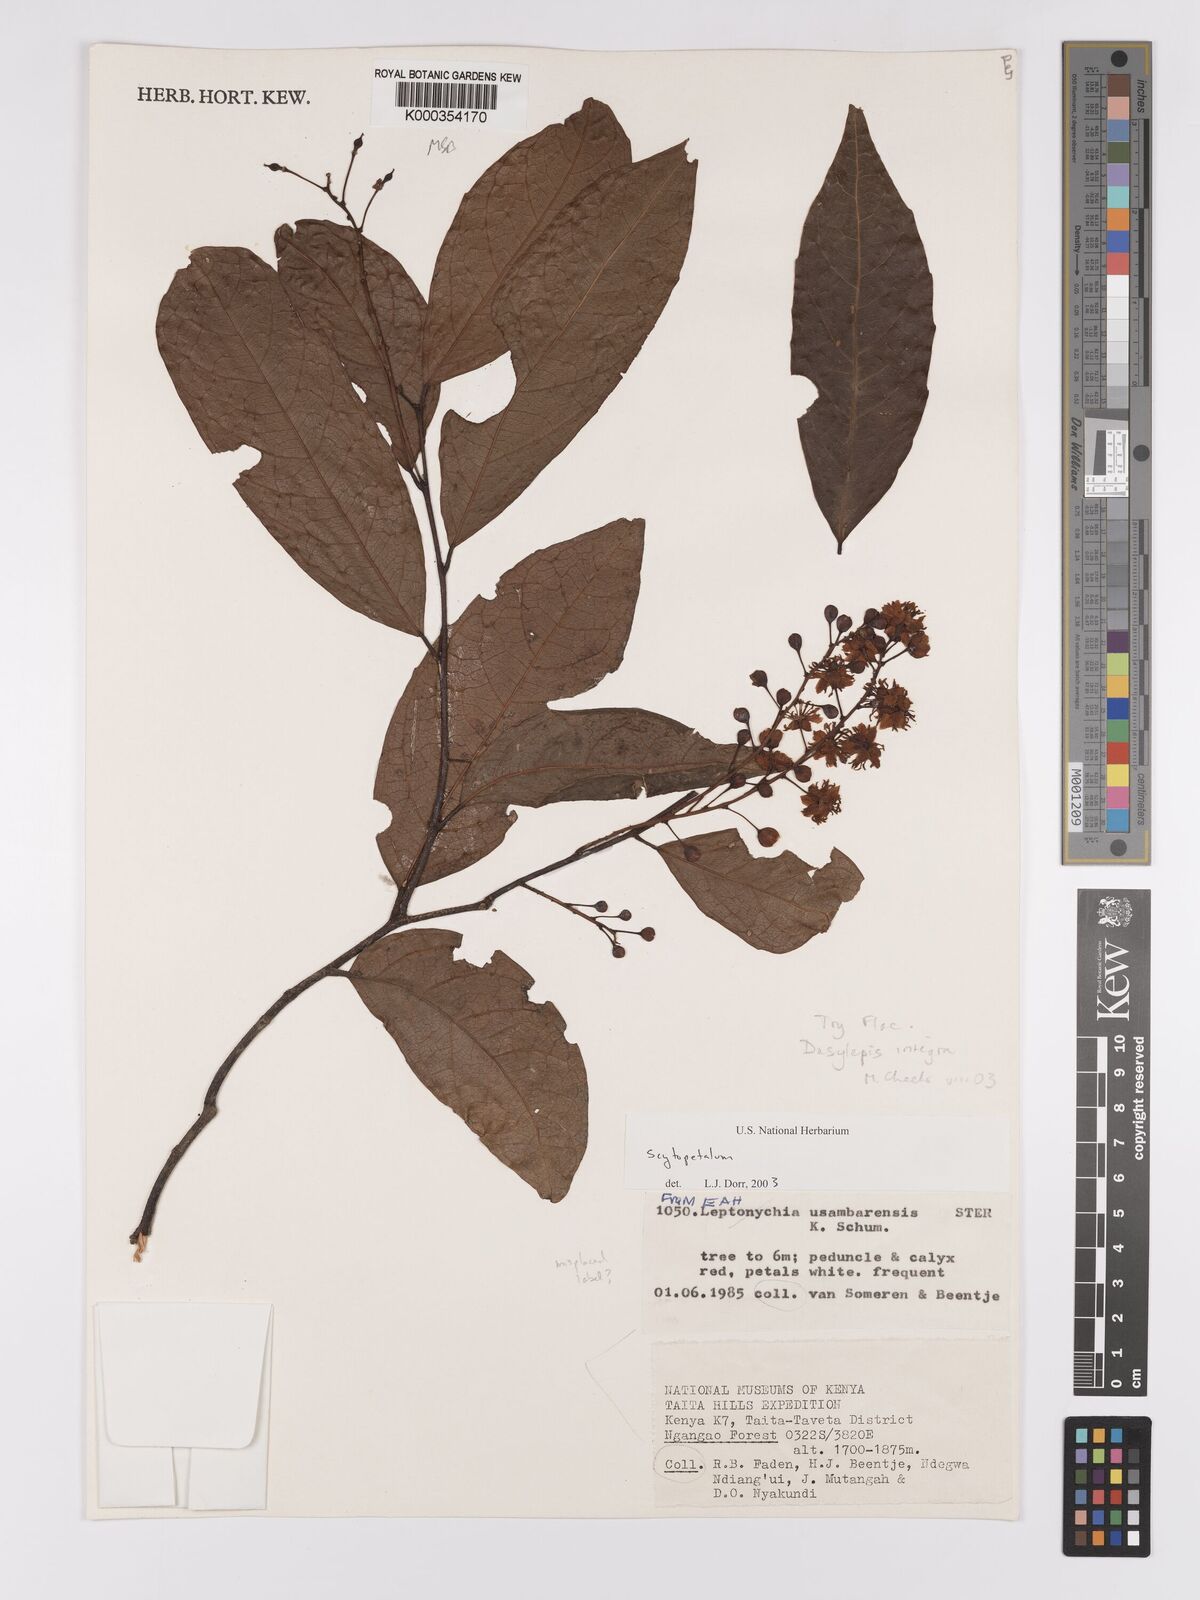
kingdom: Plantae
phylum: Tracheophyta
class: Magnoliopsida
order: Malpighiales
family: Achariaceae
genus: Dasylepis
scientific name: Dasylepis integra
